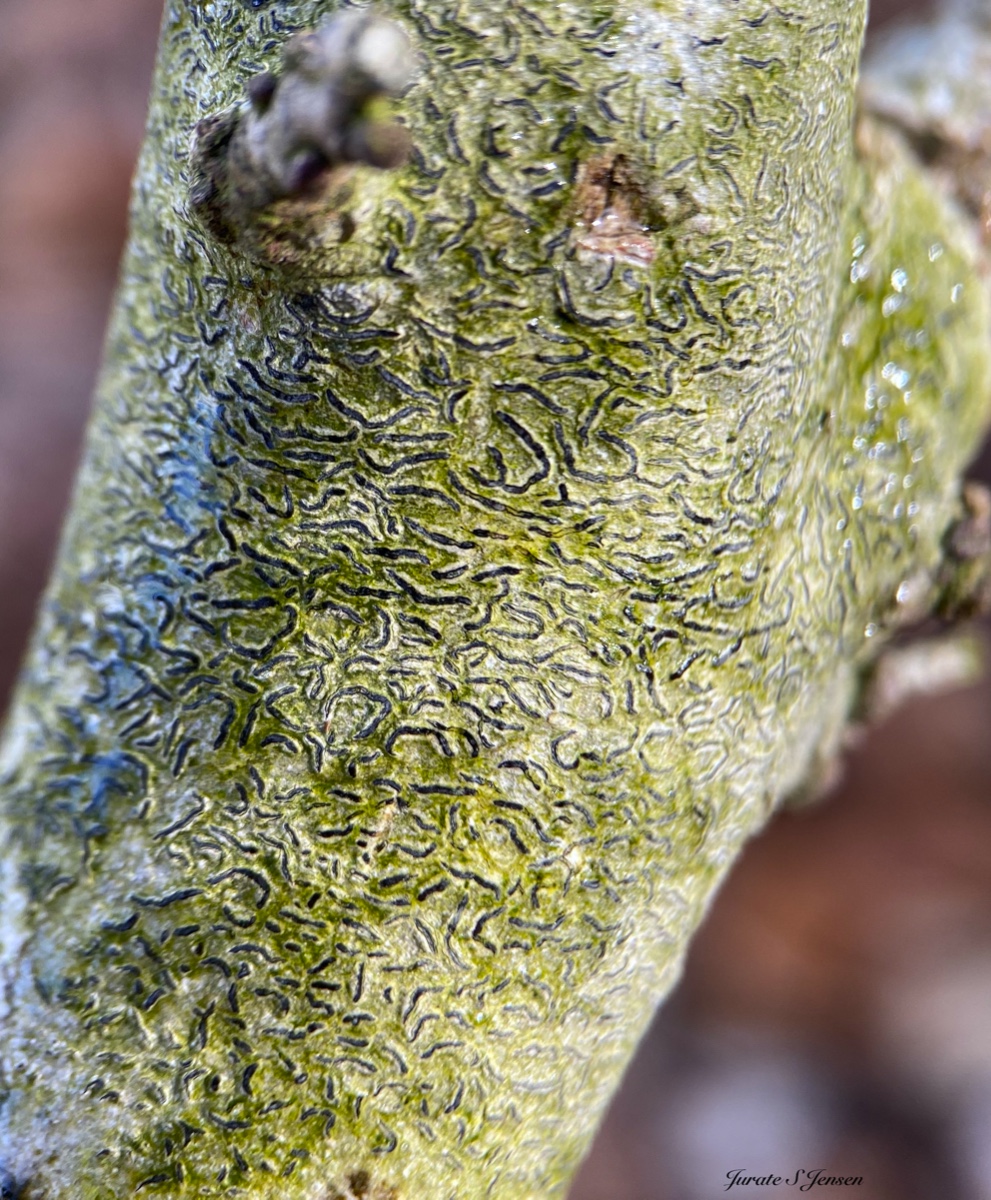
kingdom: Fungi
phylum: Ascomycota
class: Lecanoromycetes
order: Ostropales
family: Graphidaceae
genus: Graphis
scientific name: Graphis scripta
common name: almindelig skriftlav
